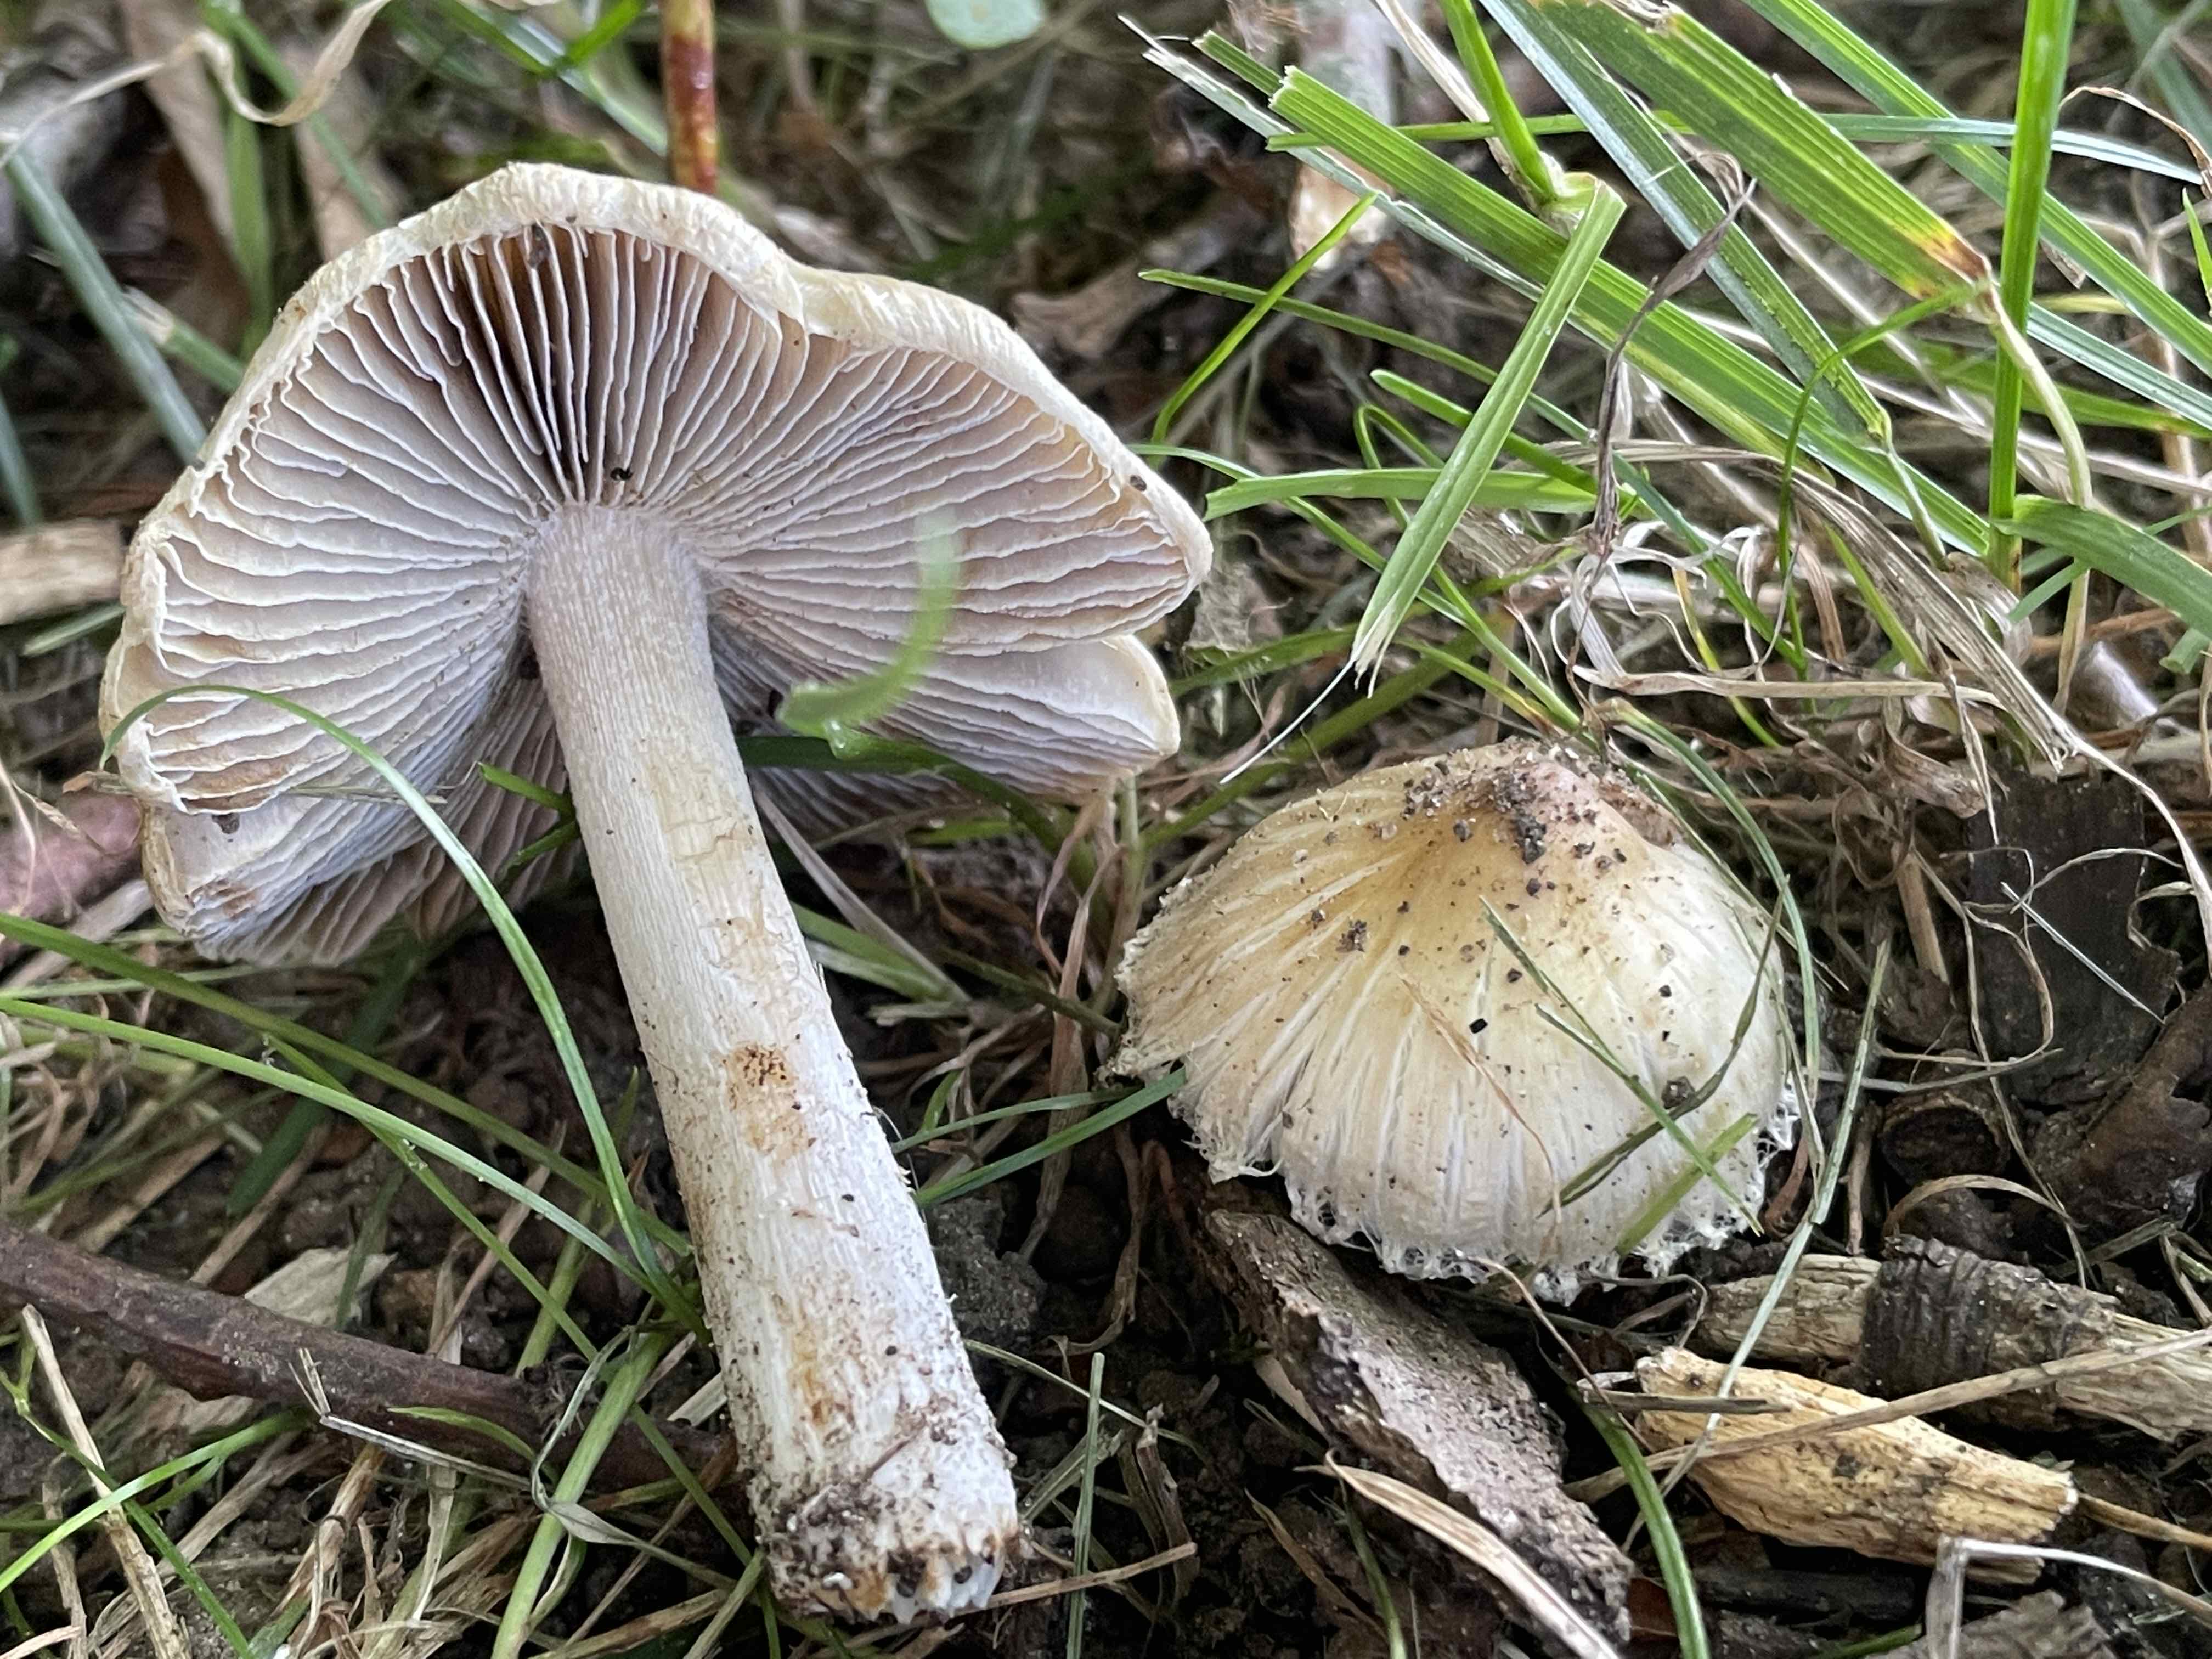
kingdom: Fungi
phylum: Basidiomycota
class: Agaricomycetes
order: Agaricales
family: Inocybaceae
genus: Pseudosperma
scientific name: Pseudosperma
